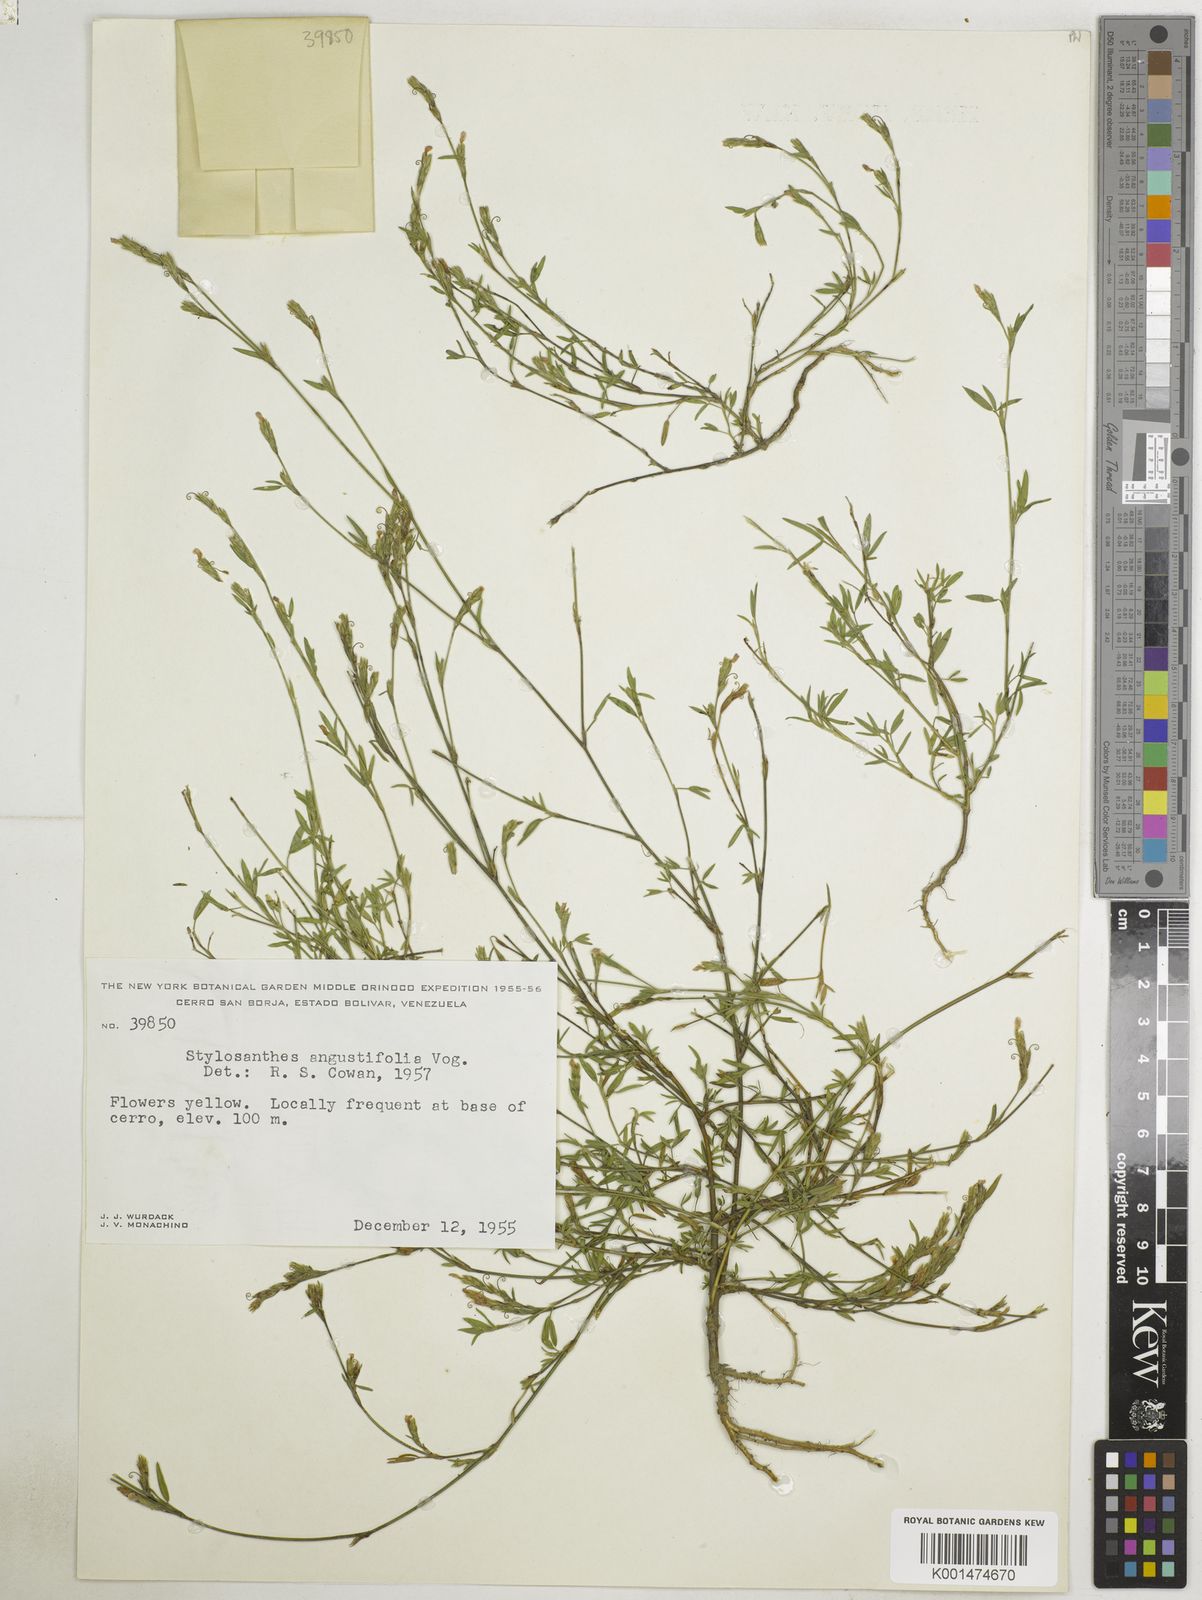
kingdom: Plantae
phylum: Tracheophyta
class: Magnoliopsida
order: Fabales
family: Fabaceae
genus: Stylosanthes
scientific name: Stylosanthes angustifolia
